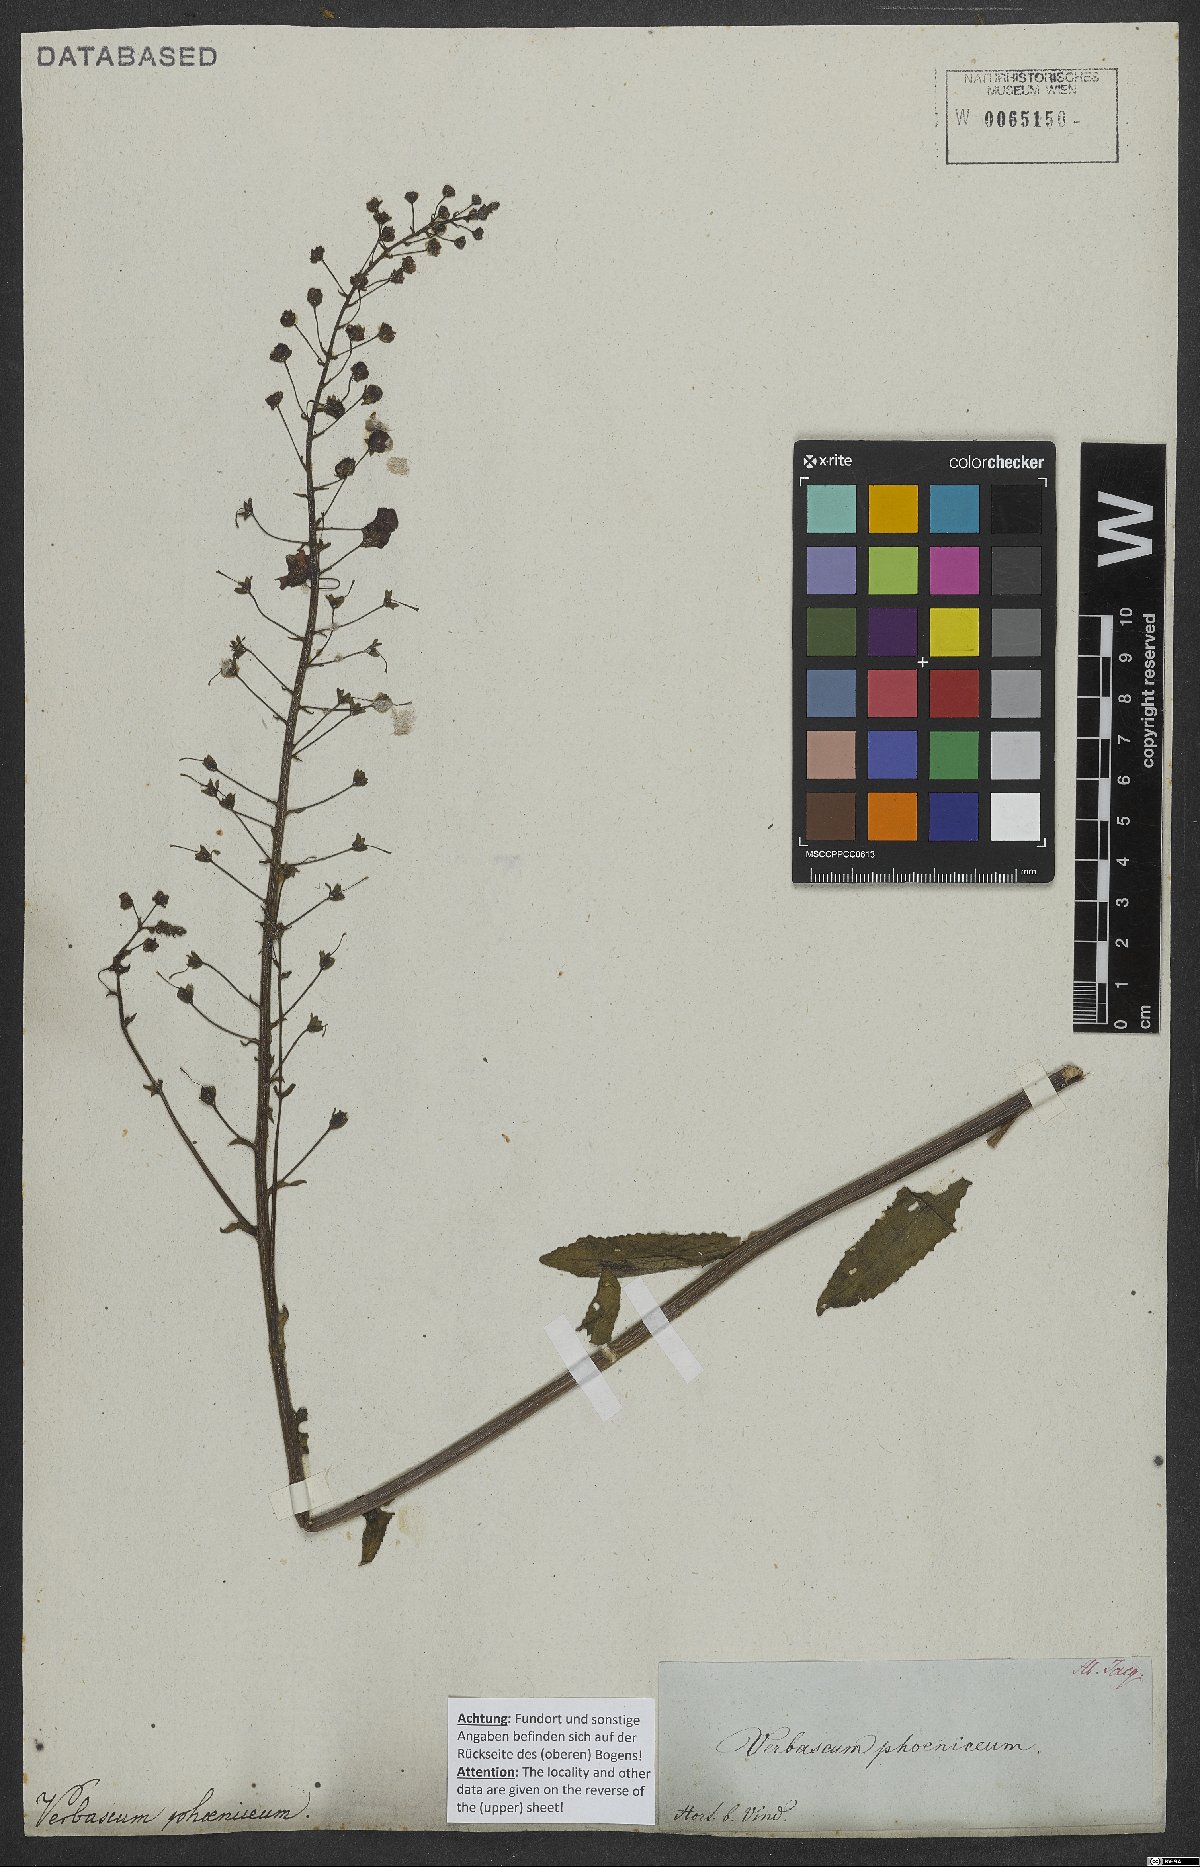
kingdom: Plantae
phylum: Tracheophyta
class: Magnoliopsida
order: Lamiales
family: Scrophulariaceae
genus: Verbascum
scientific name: Verbascum phoeniceum
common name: Purple mullein
